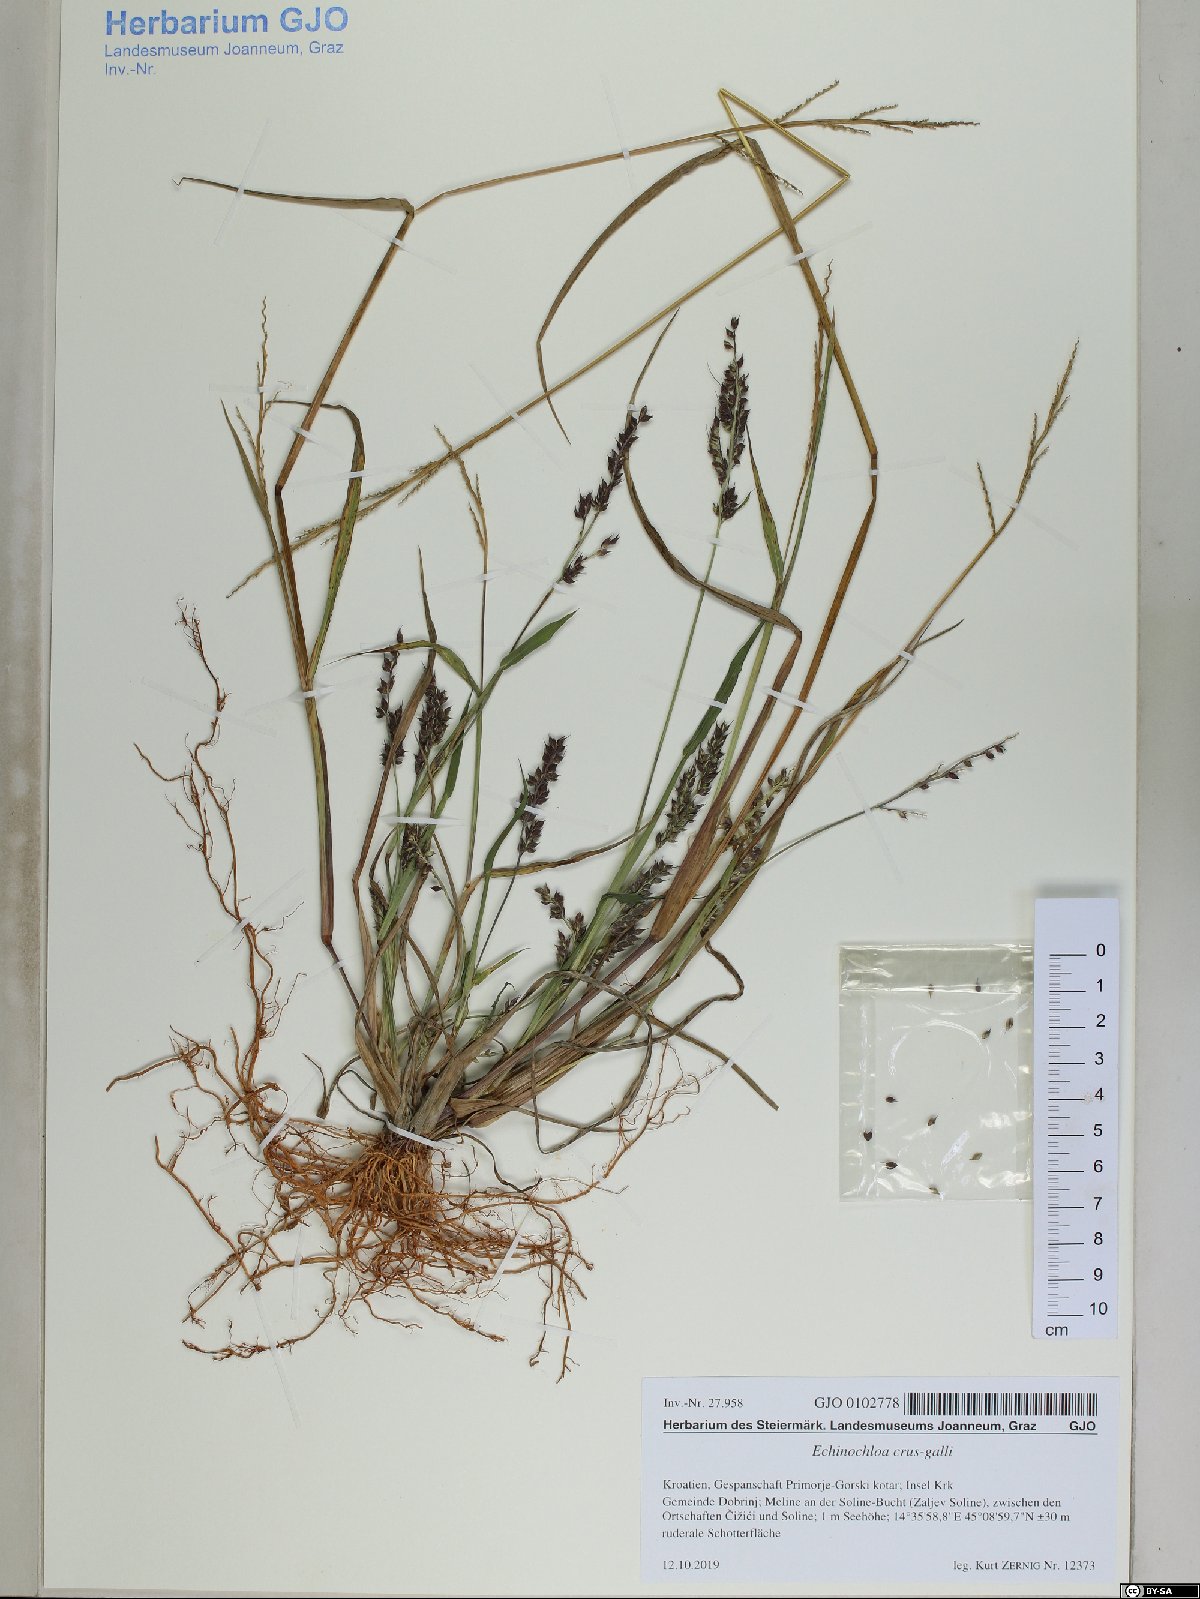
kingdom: Plantae
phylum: Tracheophyta
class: Liliopsida
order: Poales
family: Poaceae
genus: Echinochloa
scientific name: Echinochloa crus-galli
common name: Cockspur
